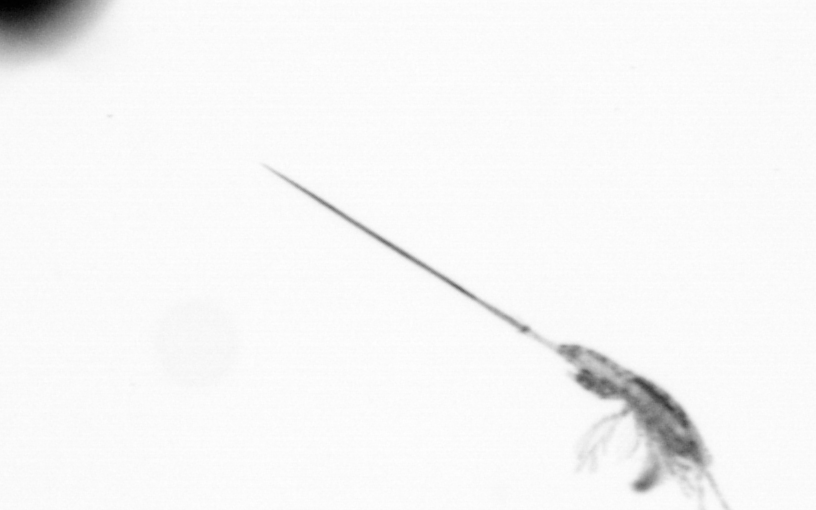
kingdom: Animalia
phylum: Arthropoda
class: Copepoda
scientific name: Copepoda
